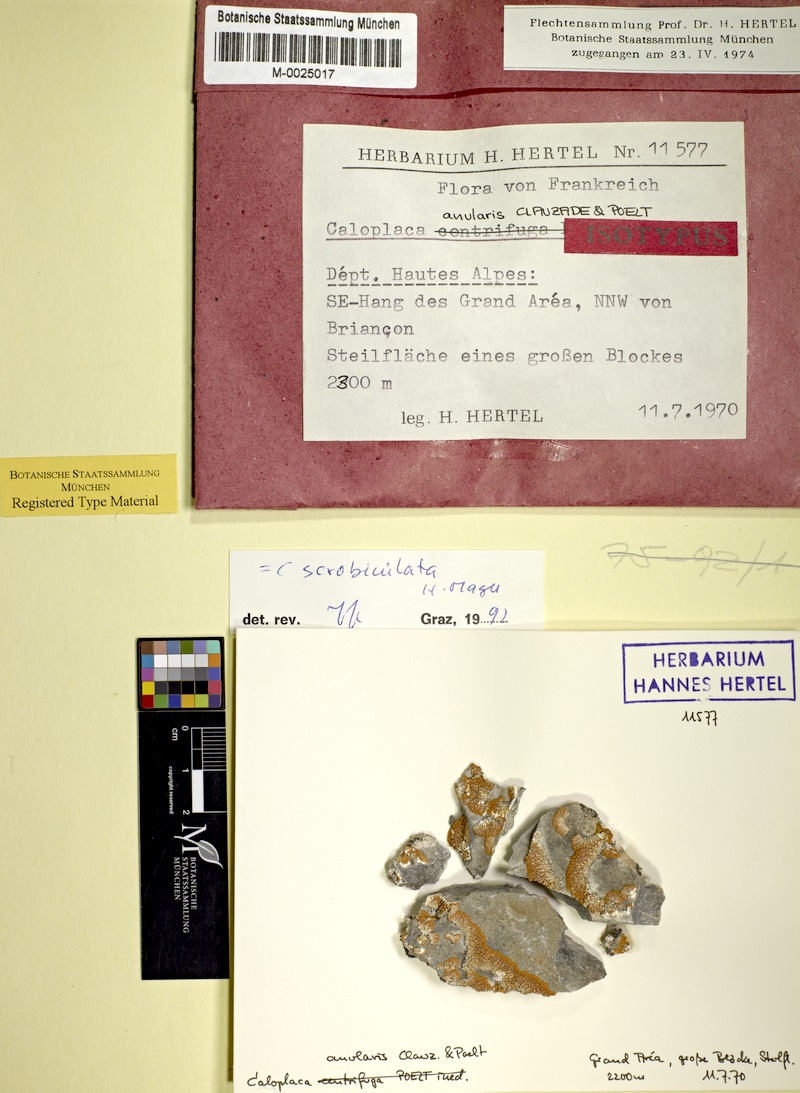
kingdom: Fungi
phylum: Ascomycota
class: Lecanoromycetes
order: Teloschistales
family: Teloschistaceae
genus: Caloplaca
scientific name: Caloplaca scrobiculata
